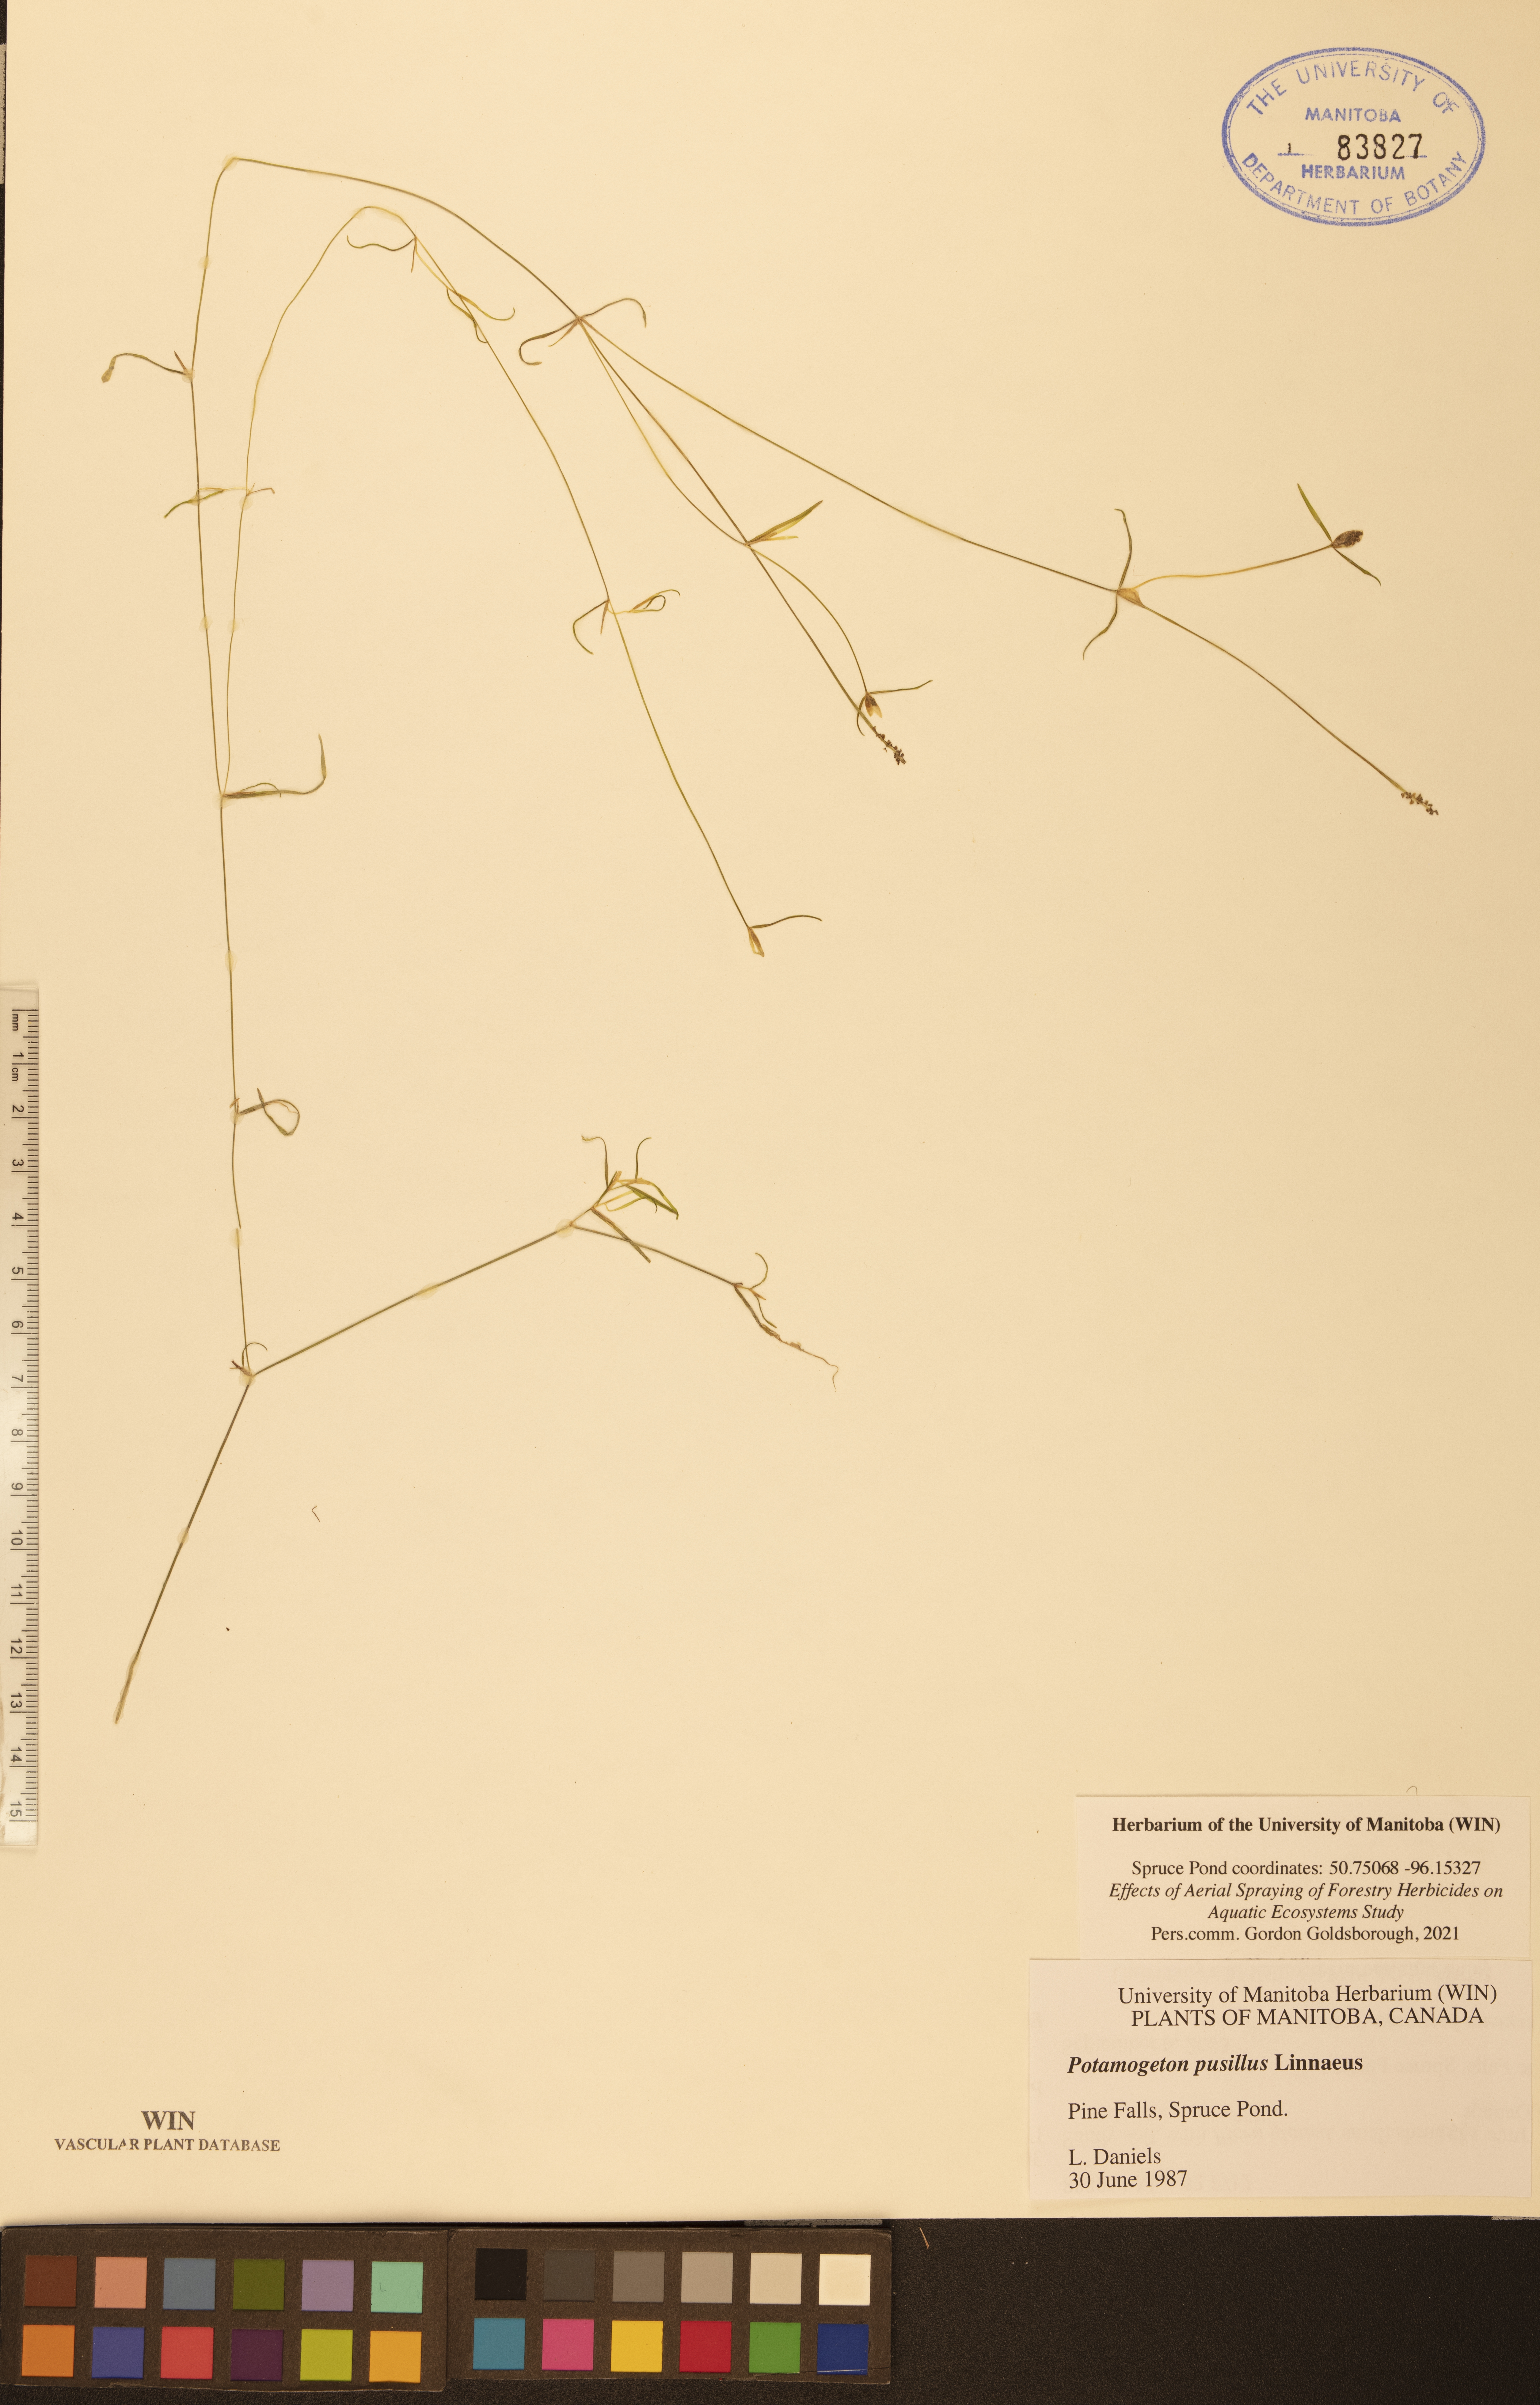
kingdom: Plantae
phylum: Tracheophyta
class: Liliopsida
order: Alismatales
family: Potamogetonaceae
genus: Potamogeton
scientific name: Potamogeton pusillus
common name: Lesser pondweed
